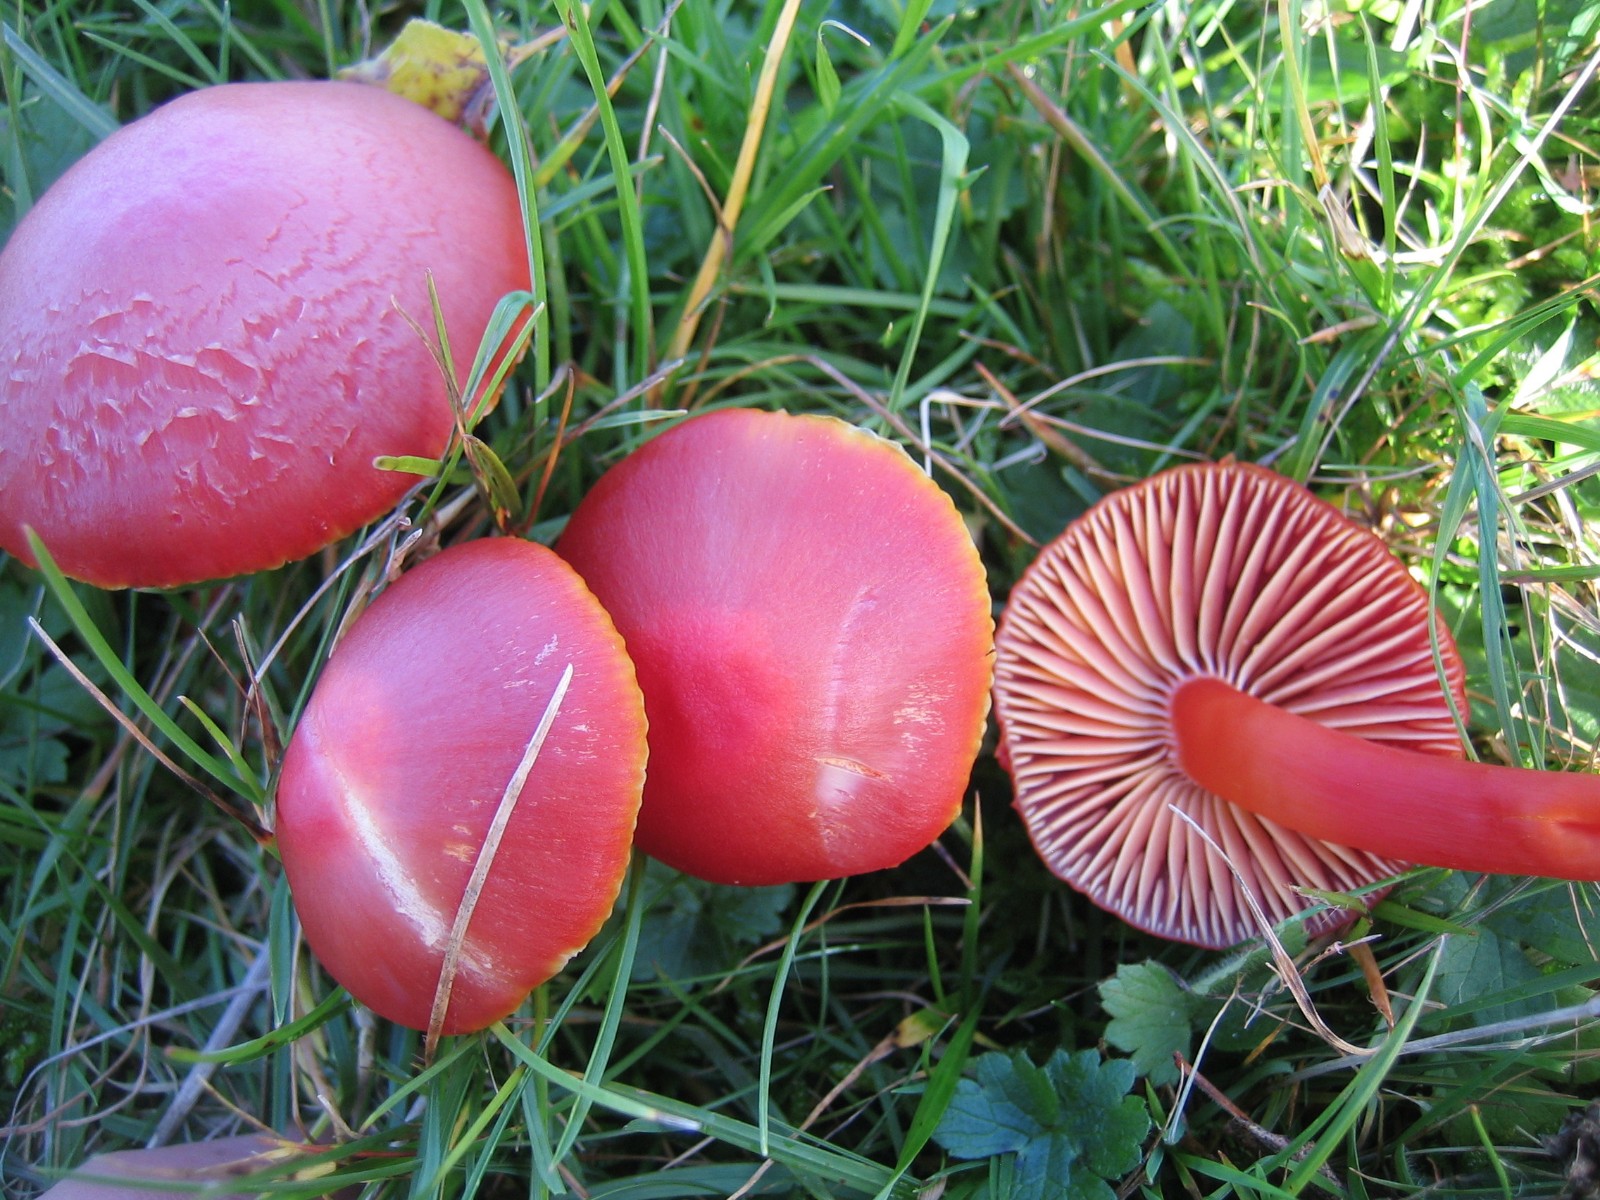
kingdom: Fungi
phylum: Basidiomycota
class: Agaricomycetes
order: Agaricales
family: Hygrophoraceae
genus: Hygrocybe
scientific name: Hygrocybe coccinea
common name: cinnober-vokshat
